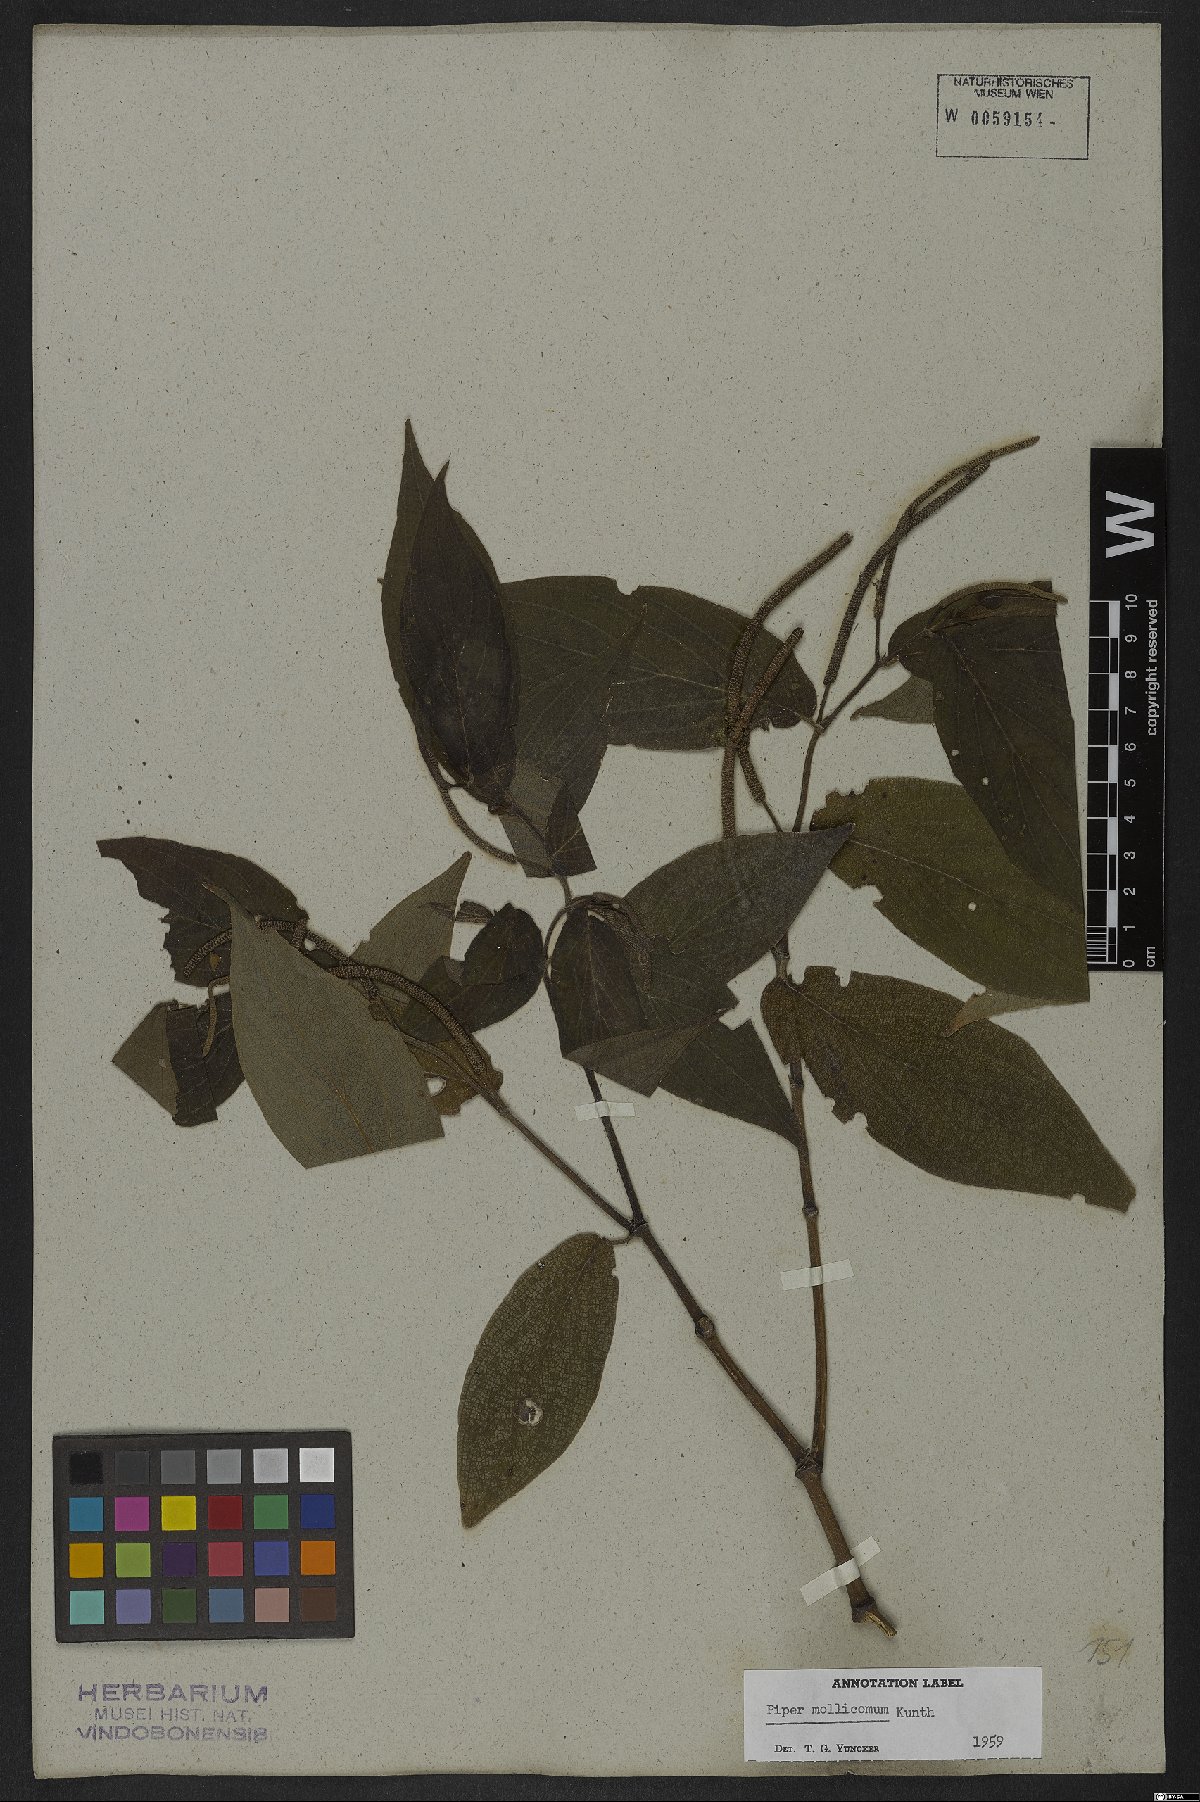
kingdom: Plantae
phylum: Tracheophyta
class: Magnoliopsida
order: Piperales
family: Piperaceae
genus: Piper
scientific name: Piper mollicomum
